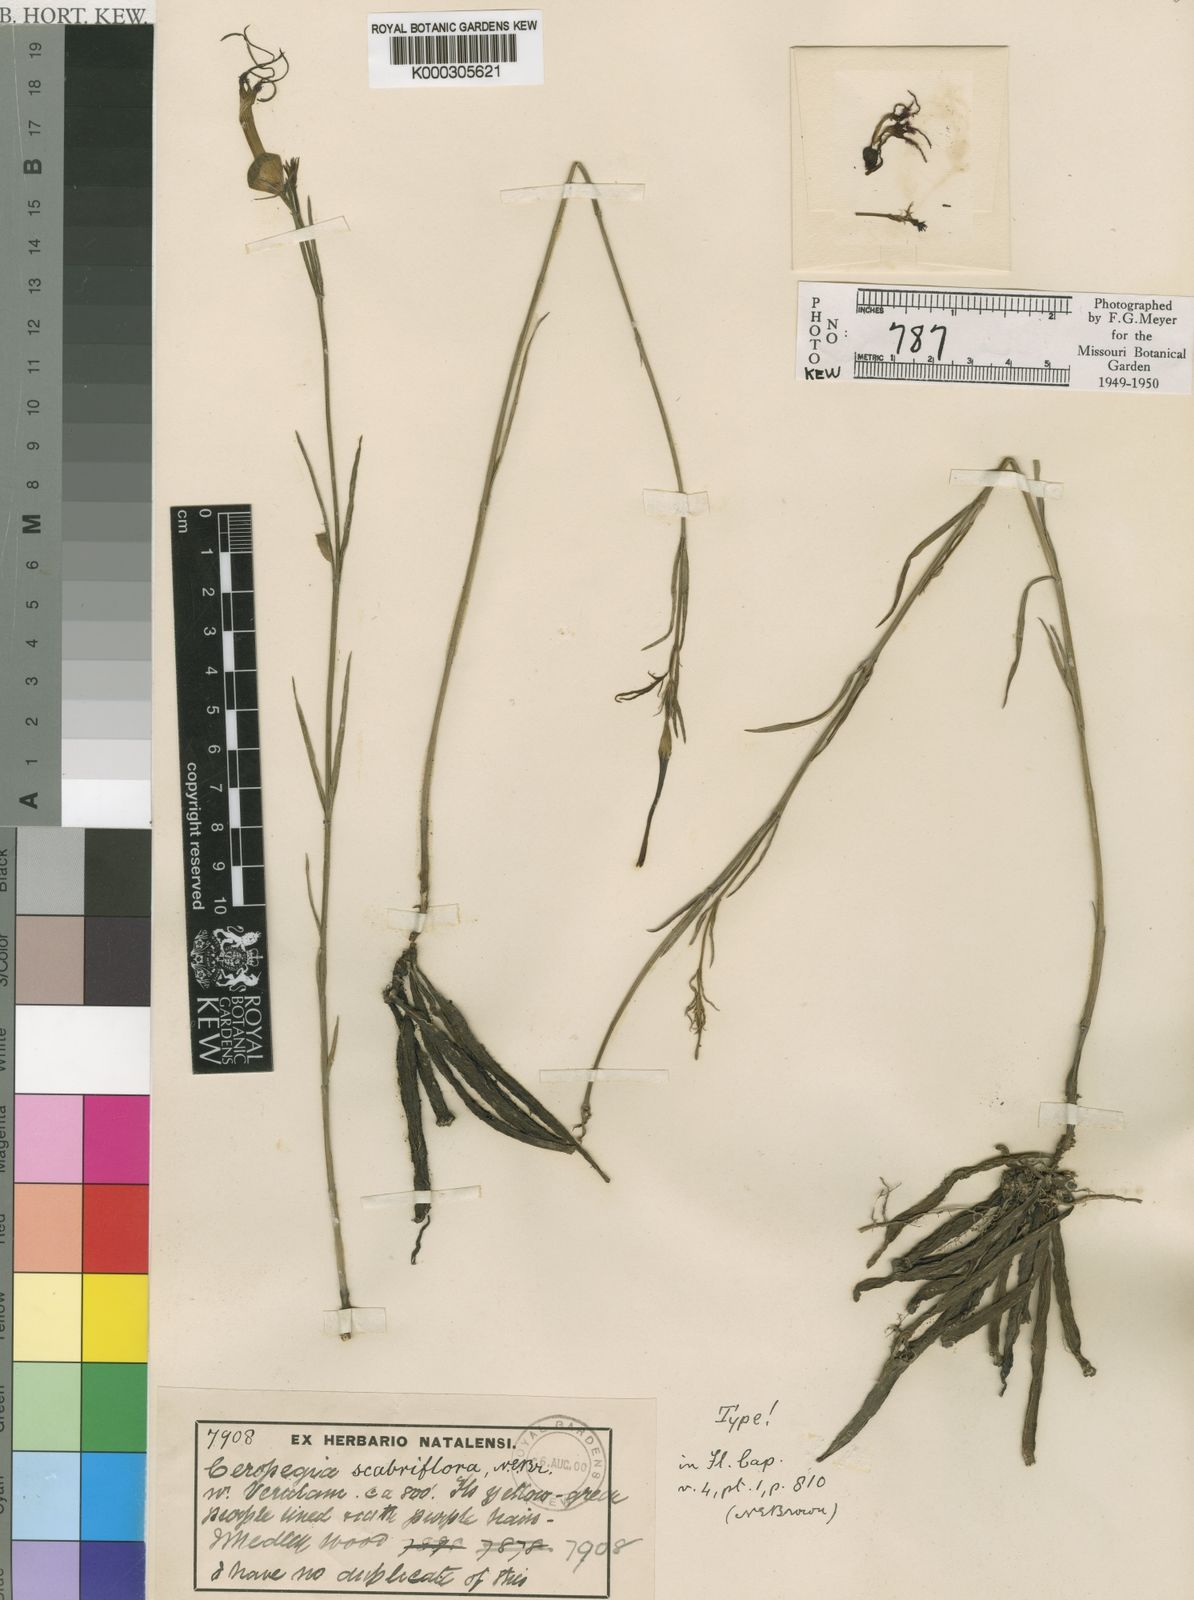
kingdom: Plantae
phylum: Tracheophyta
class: Magnoliopsida
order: Gentianales
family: Apocynaceae
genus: Ceropegia
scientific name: Ceropegia scabriflora
